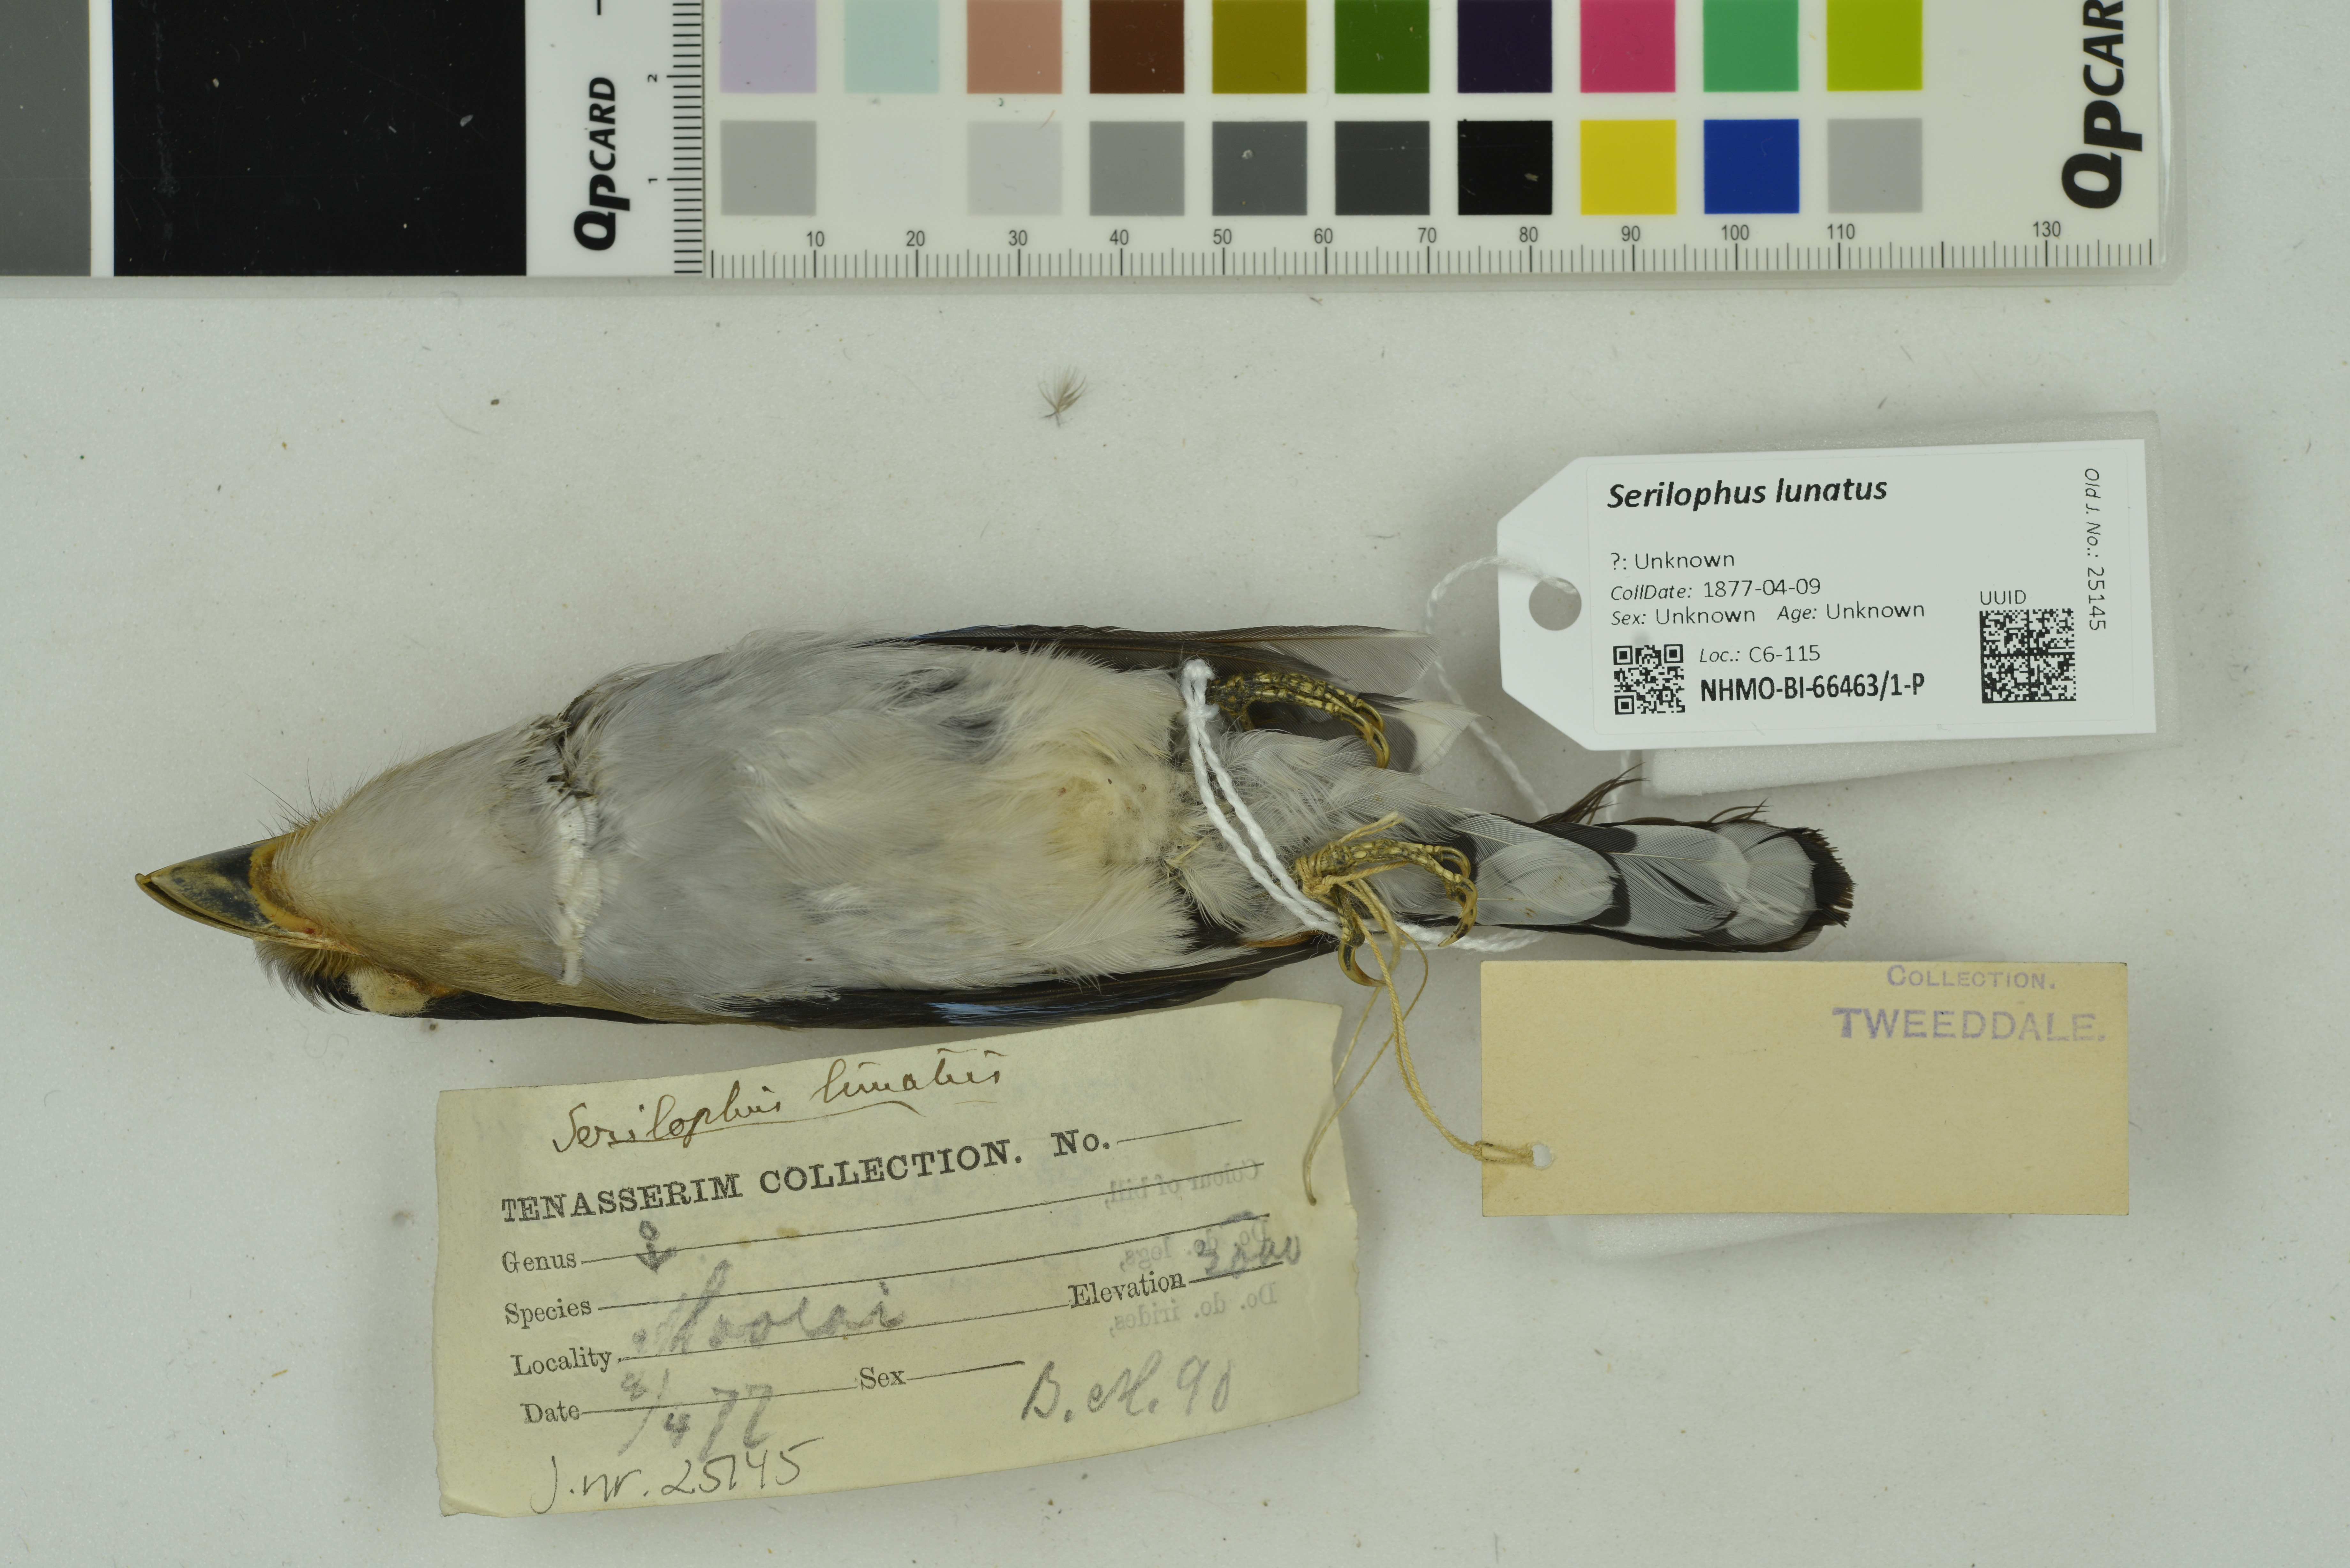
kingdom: Animalia
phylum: Chordata
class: Aves
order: Passeriformes
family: Eurylaimidae
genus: Serilophus
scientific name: Serilophus lunatus
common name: Silver-breasted broadbill
